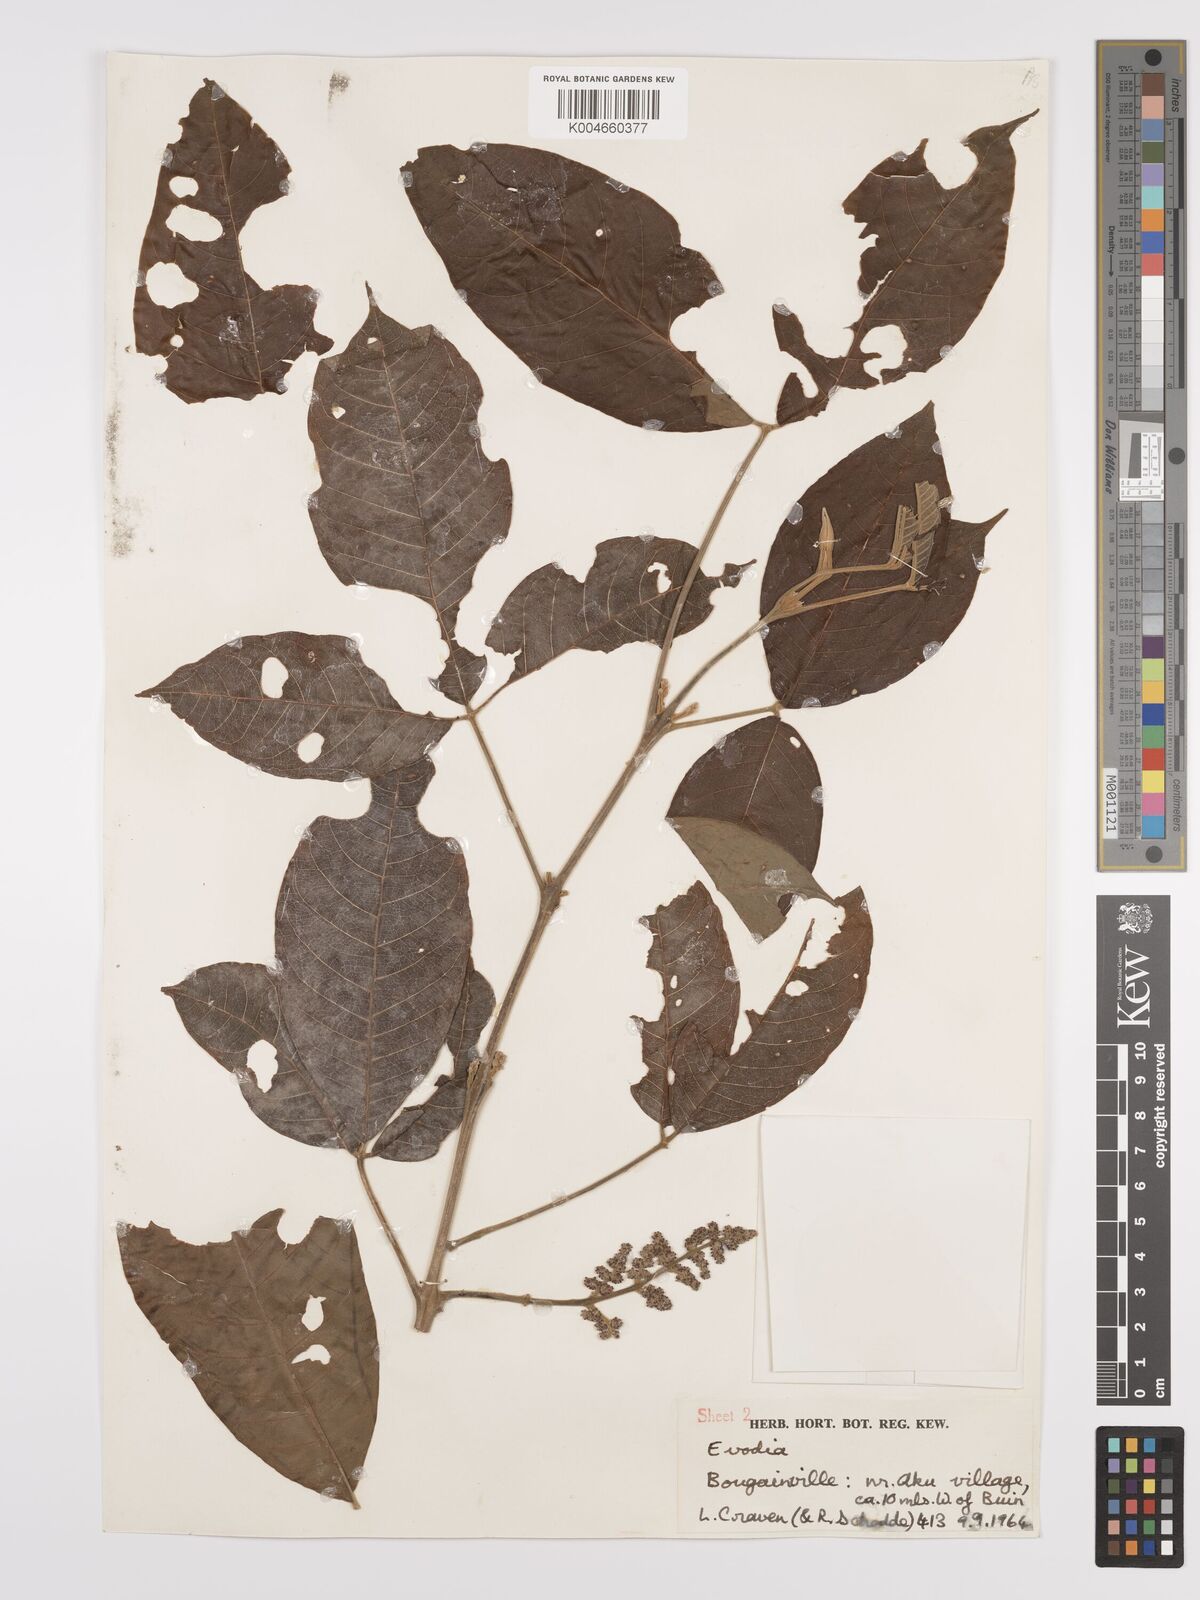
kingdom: Plantae
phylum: Tracheophyta
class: Magnoliopsida
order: Sapindales
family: Rutaceae
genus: Euodia
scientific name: Euodia
